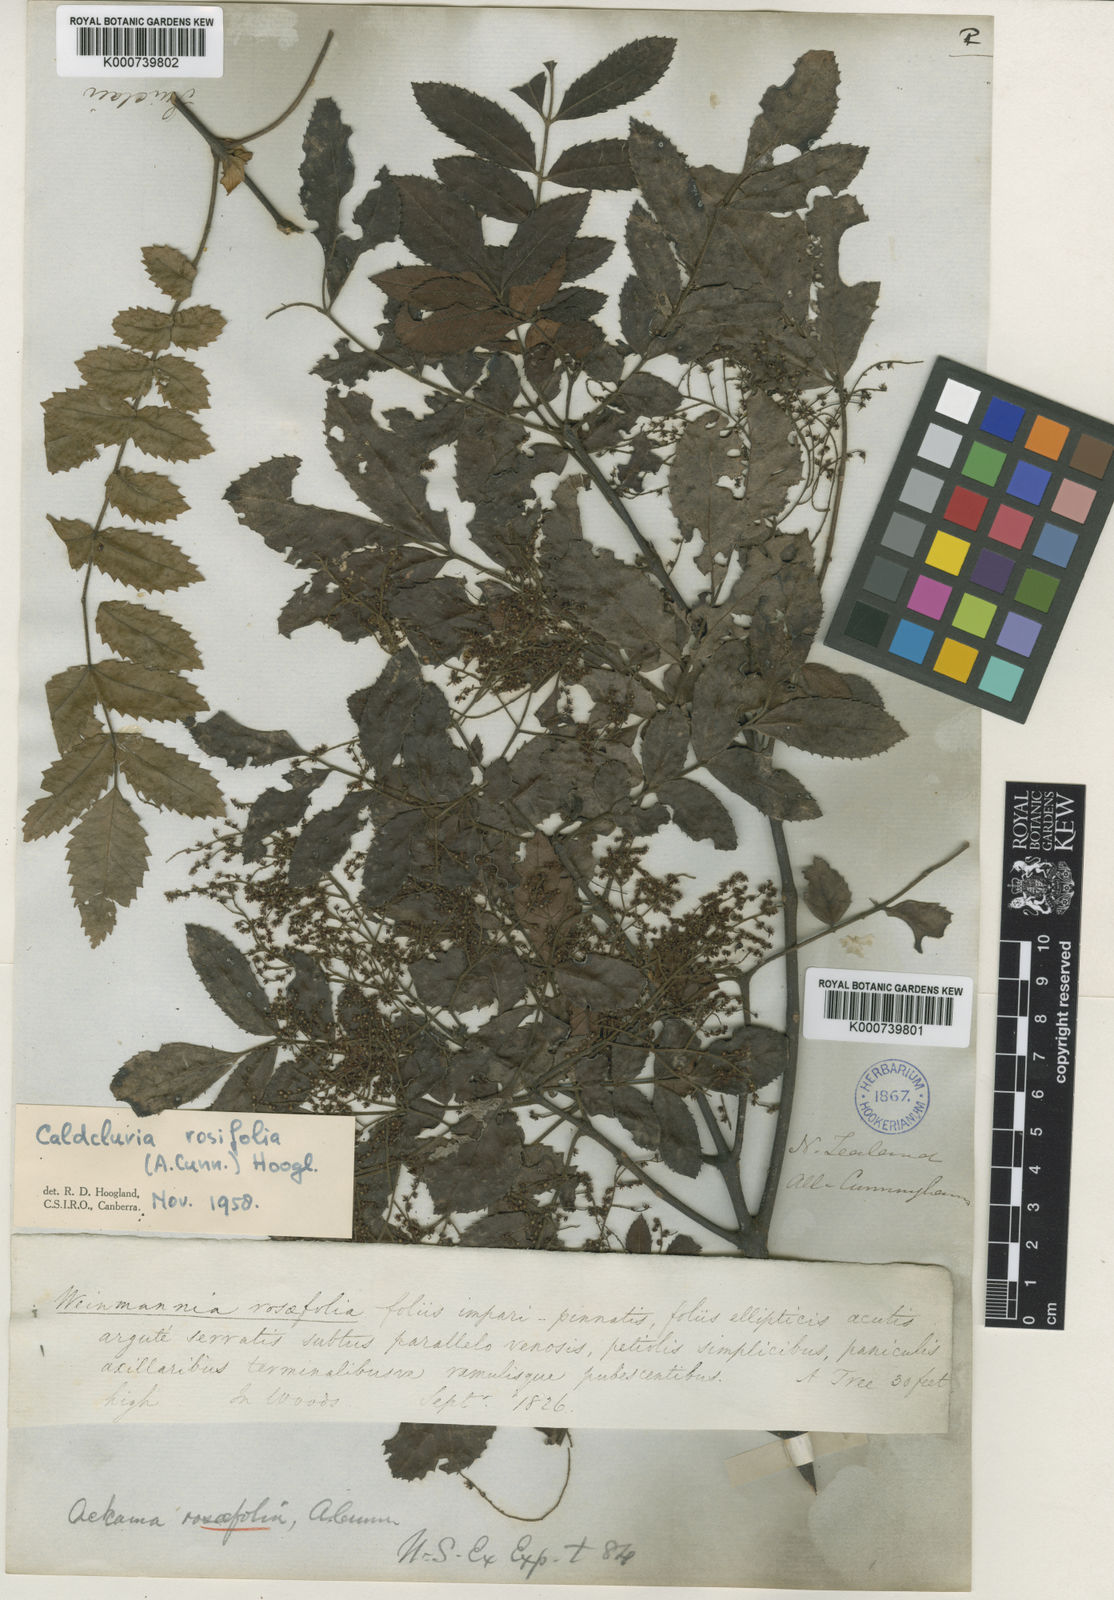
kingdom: Plantae
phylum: Tracheophyta
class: Magnoliopsida
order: Oxalidales
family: Cunoniaceae
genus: Ackama
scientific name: Ackama rosifolia
